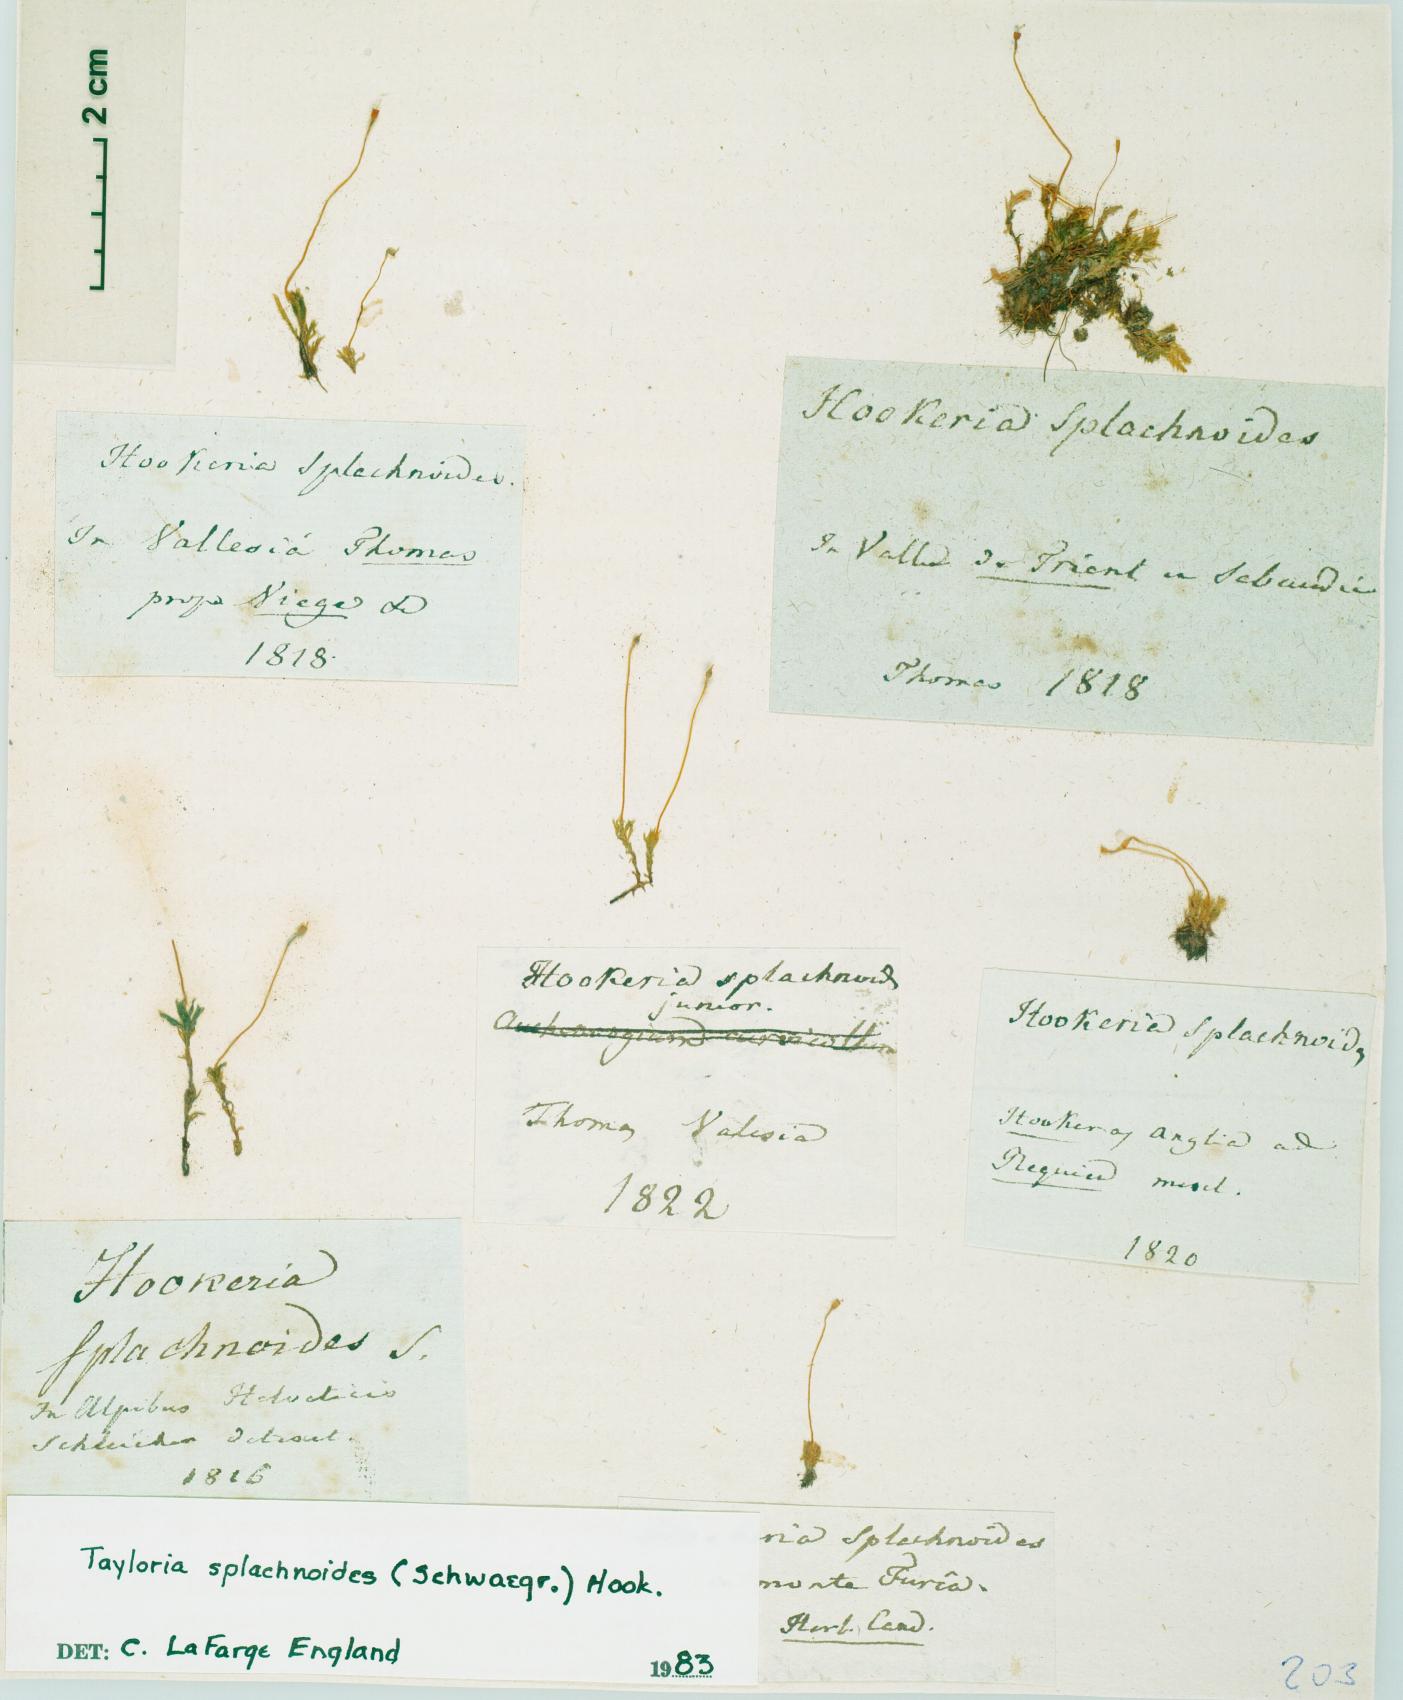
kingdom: Plantae
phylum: Bryophyta
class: Bryopsida
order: Splachnales
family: Splachnaceae
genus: Tayloria
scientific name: Tayloria splachnoides
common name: Splachnoid trumpet moss
